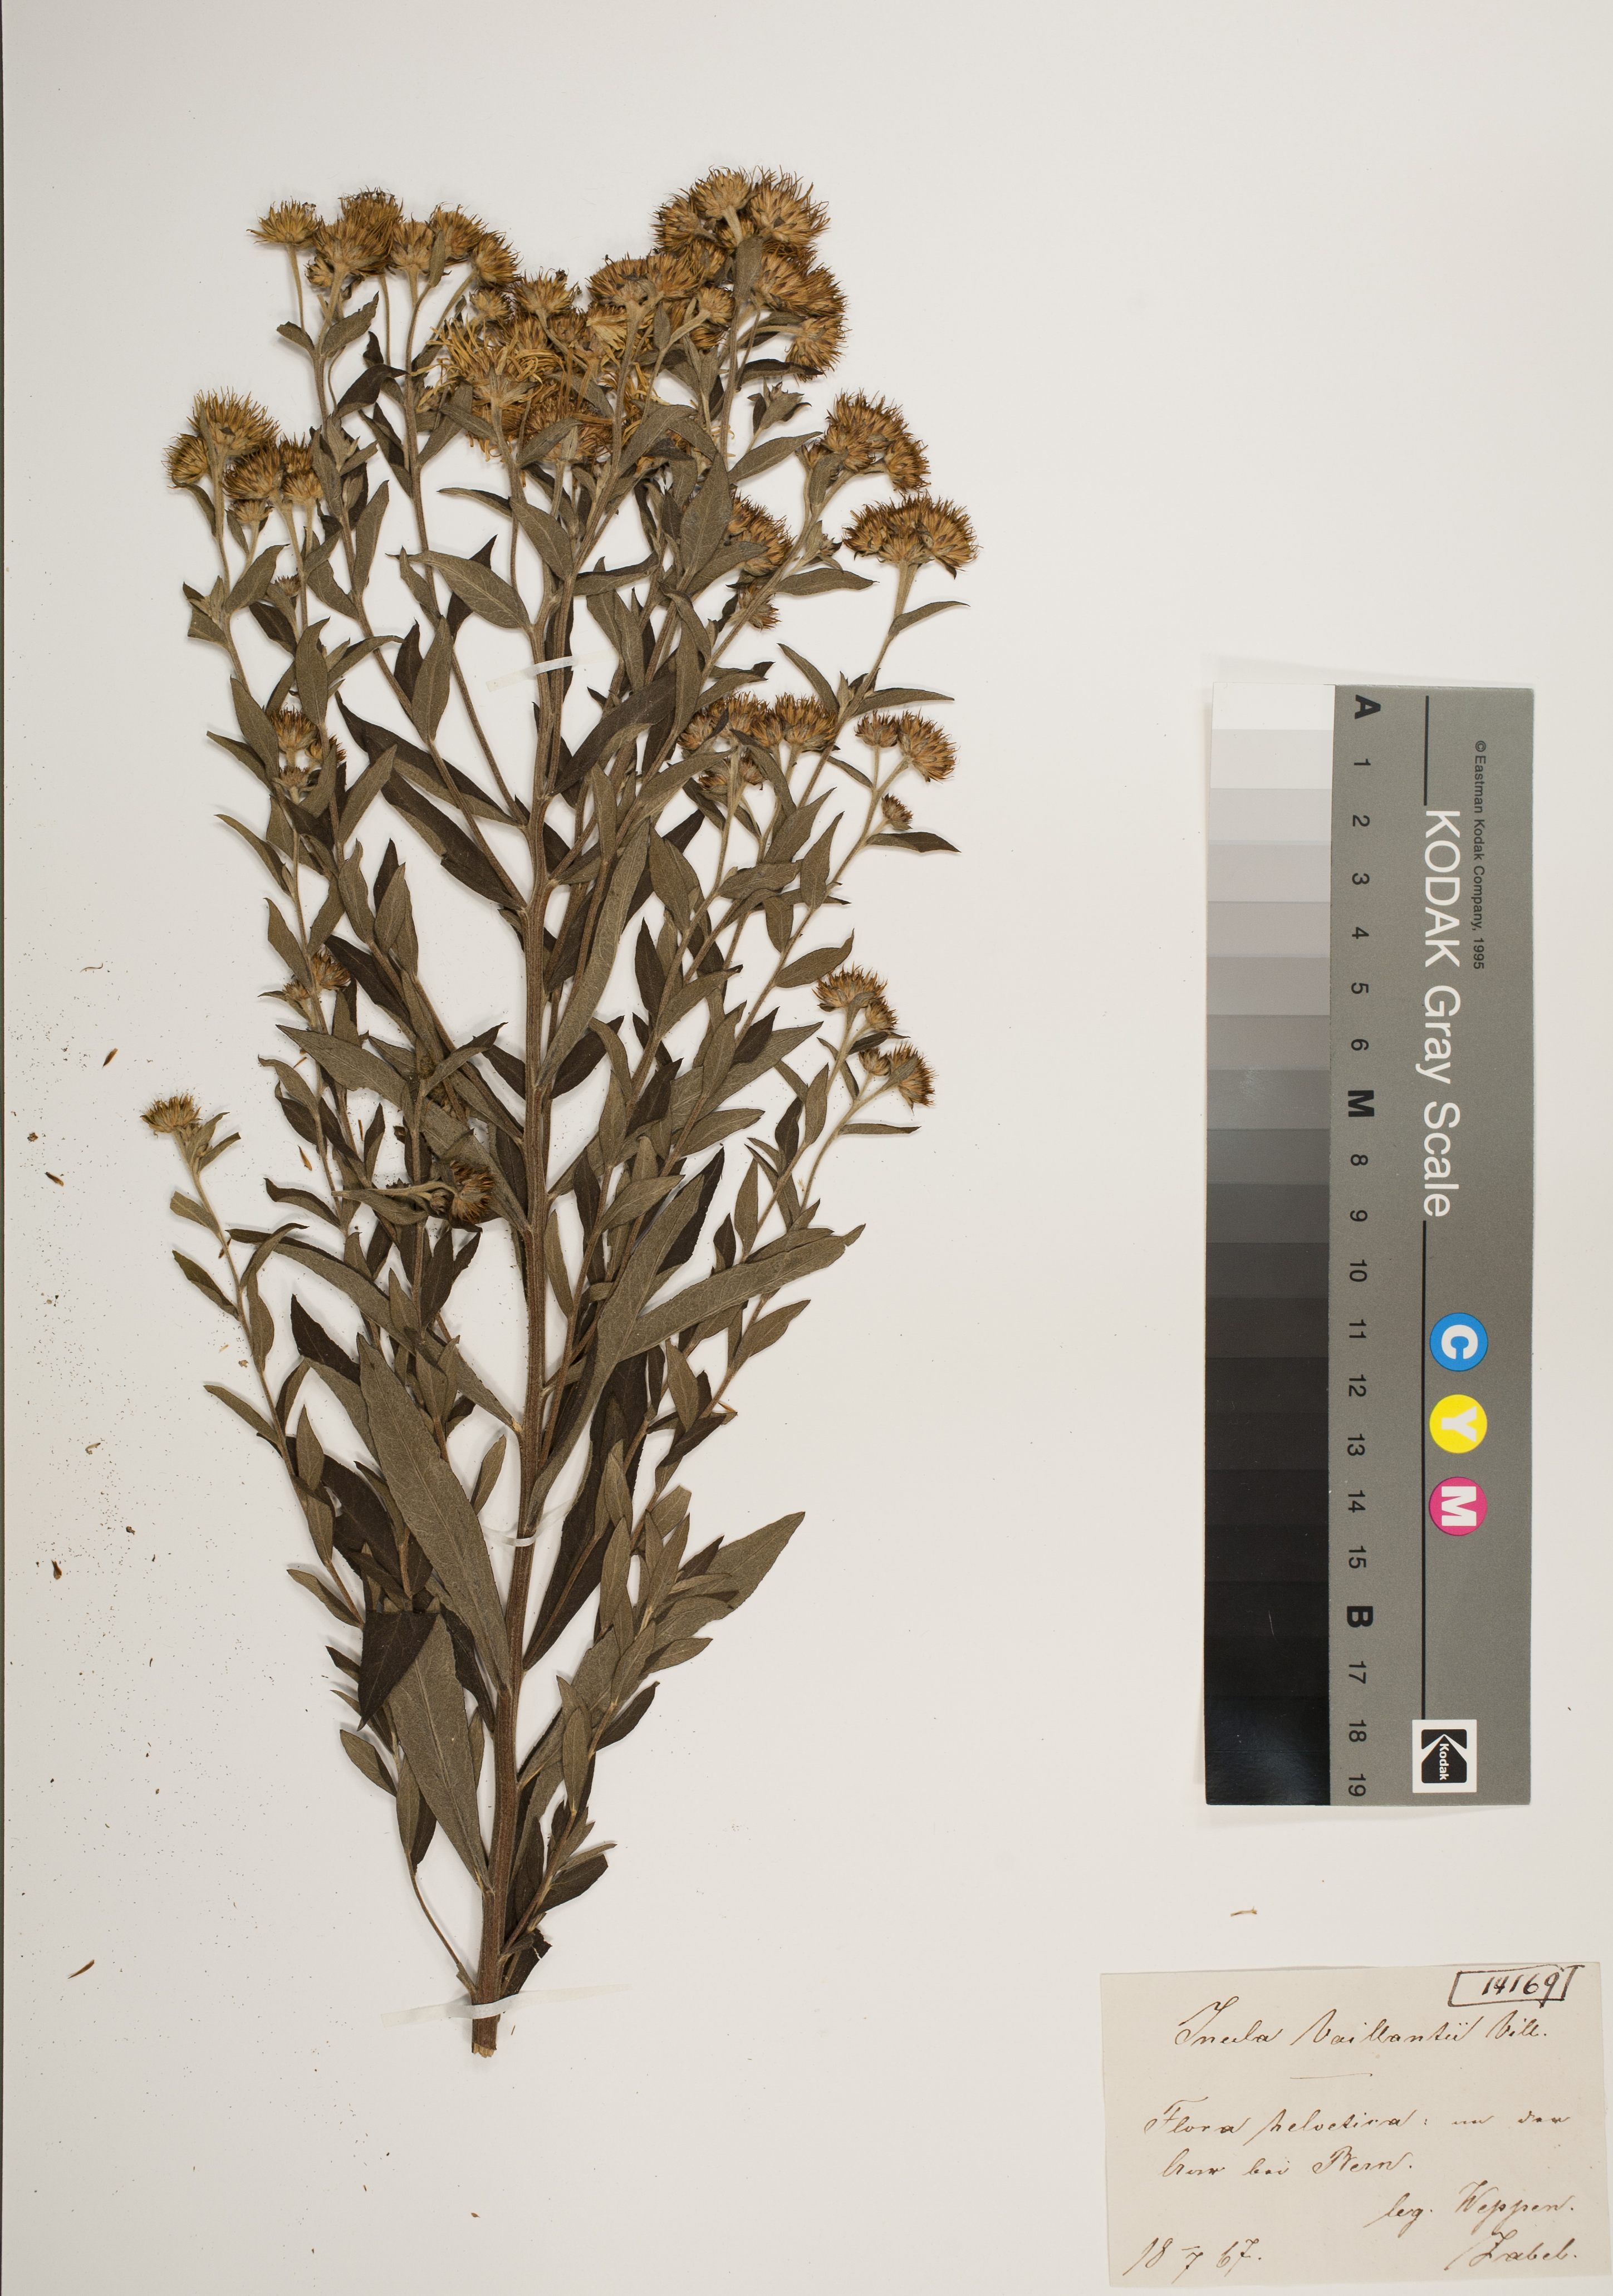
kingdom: Plantae
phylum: Tracheophyta
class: Magnoliopsida
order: Asterales
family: Asteraceae
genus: Pentanema
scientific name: Pentanema helveticum
